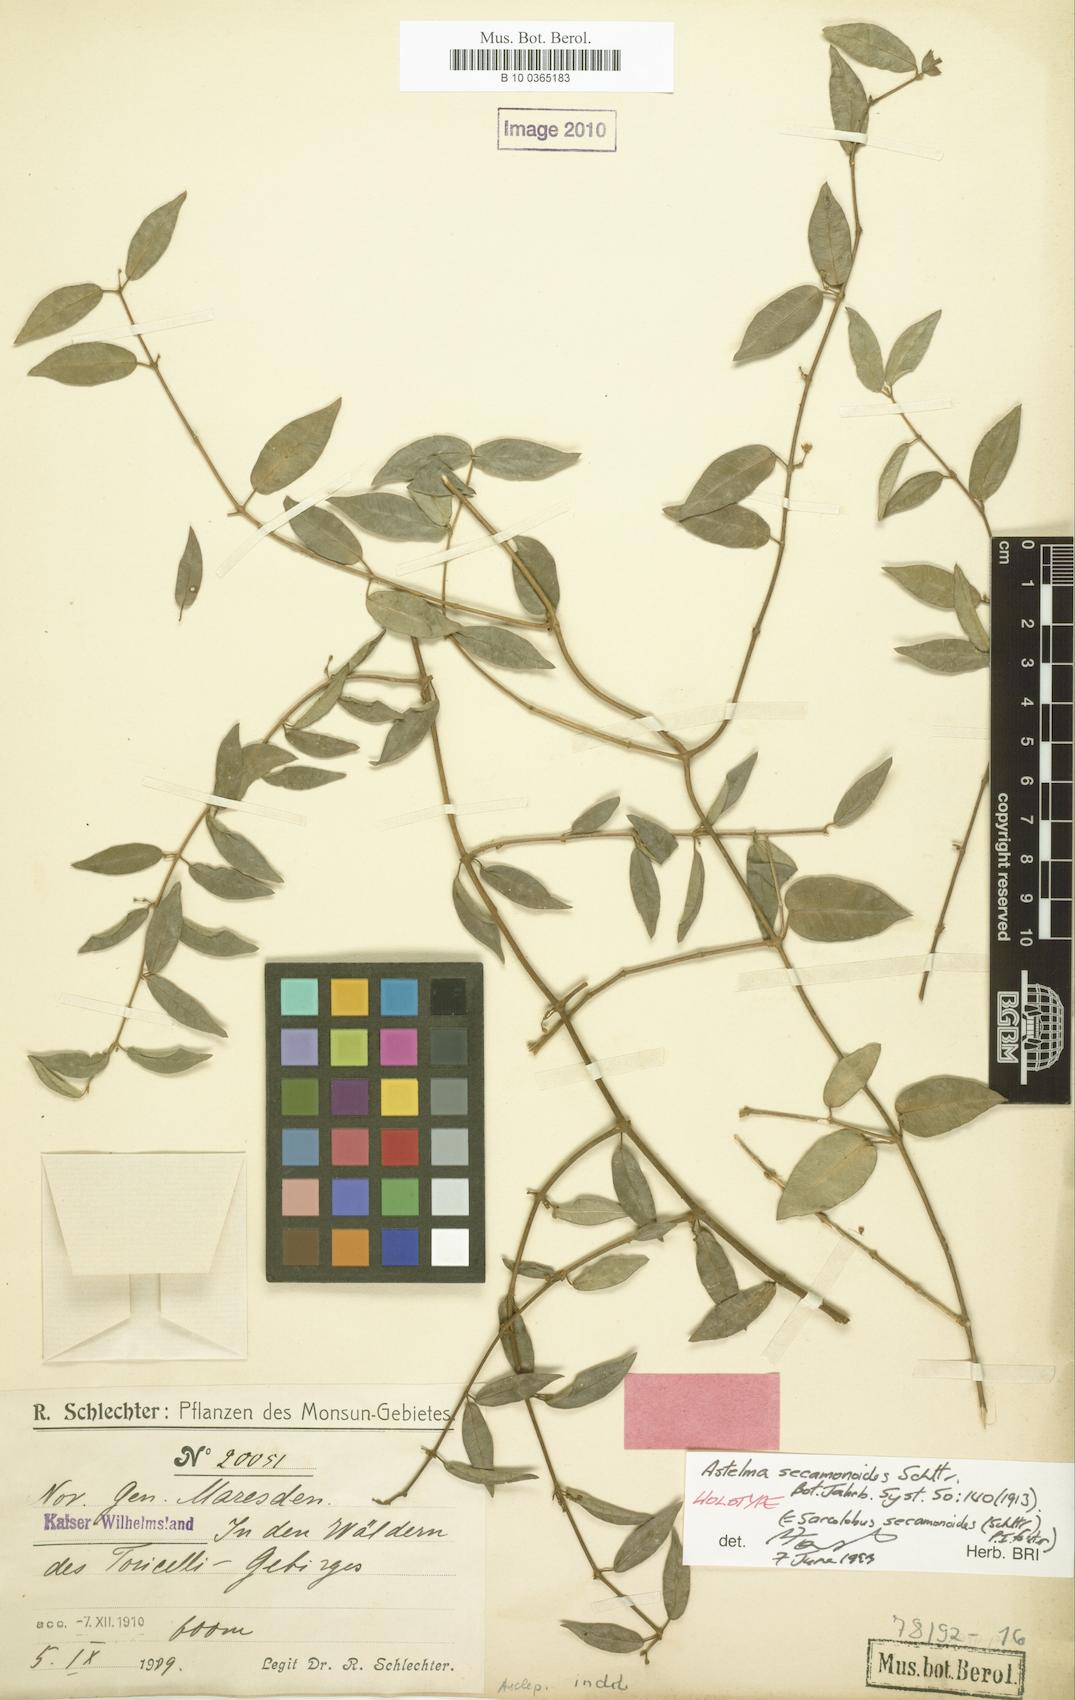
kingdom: Plantae
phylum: Tracheophyta
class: Magnoliopsida
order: Gentianales
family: Apocynaceae
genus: Sarcolobus
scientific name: Sarcolobus secamonoides
